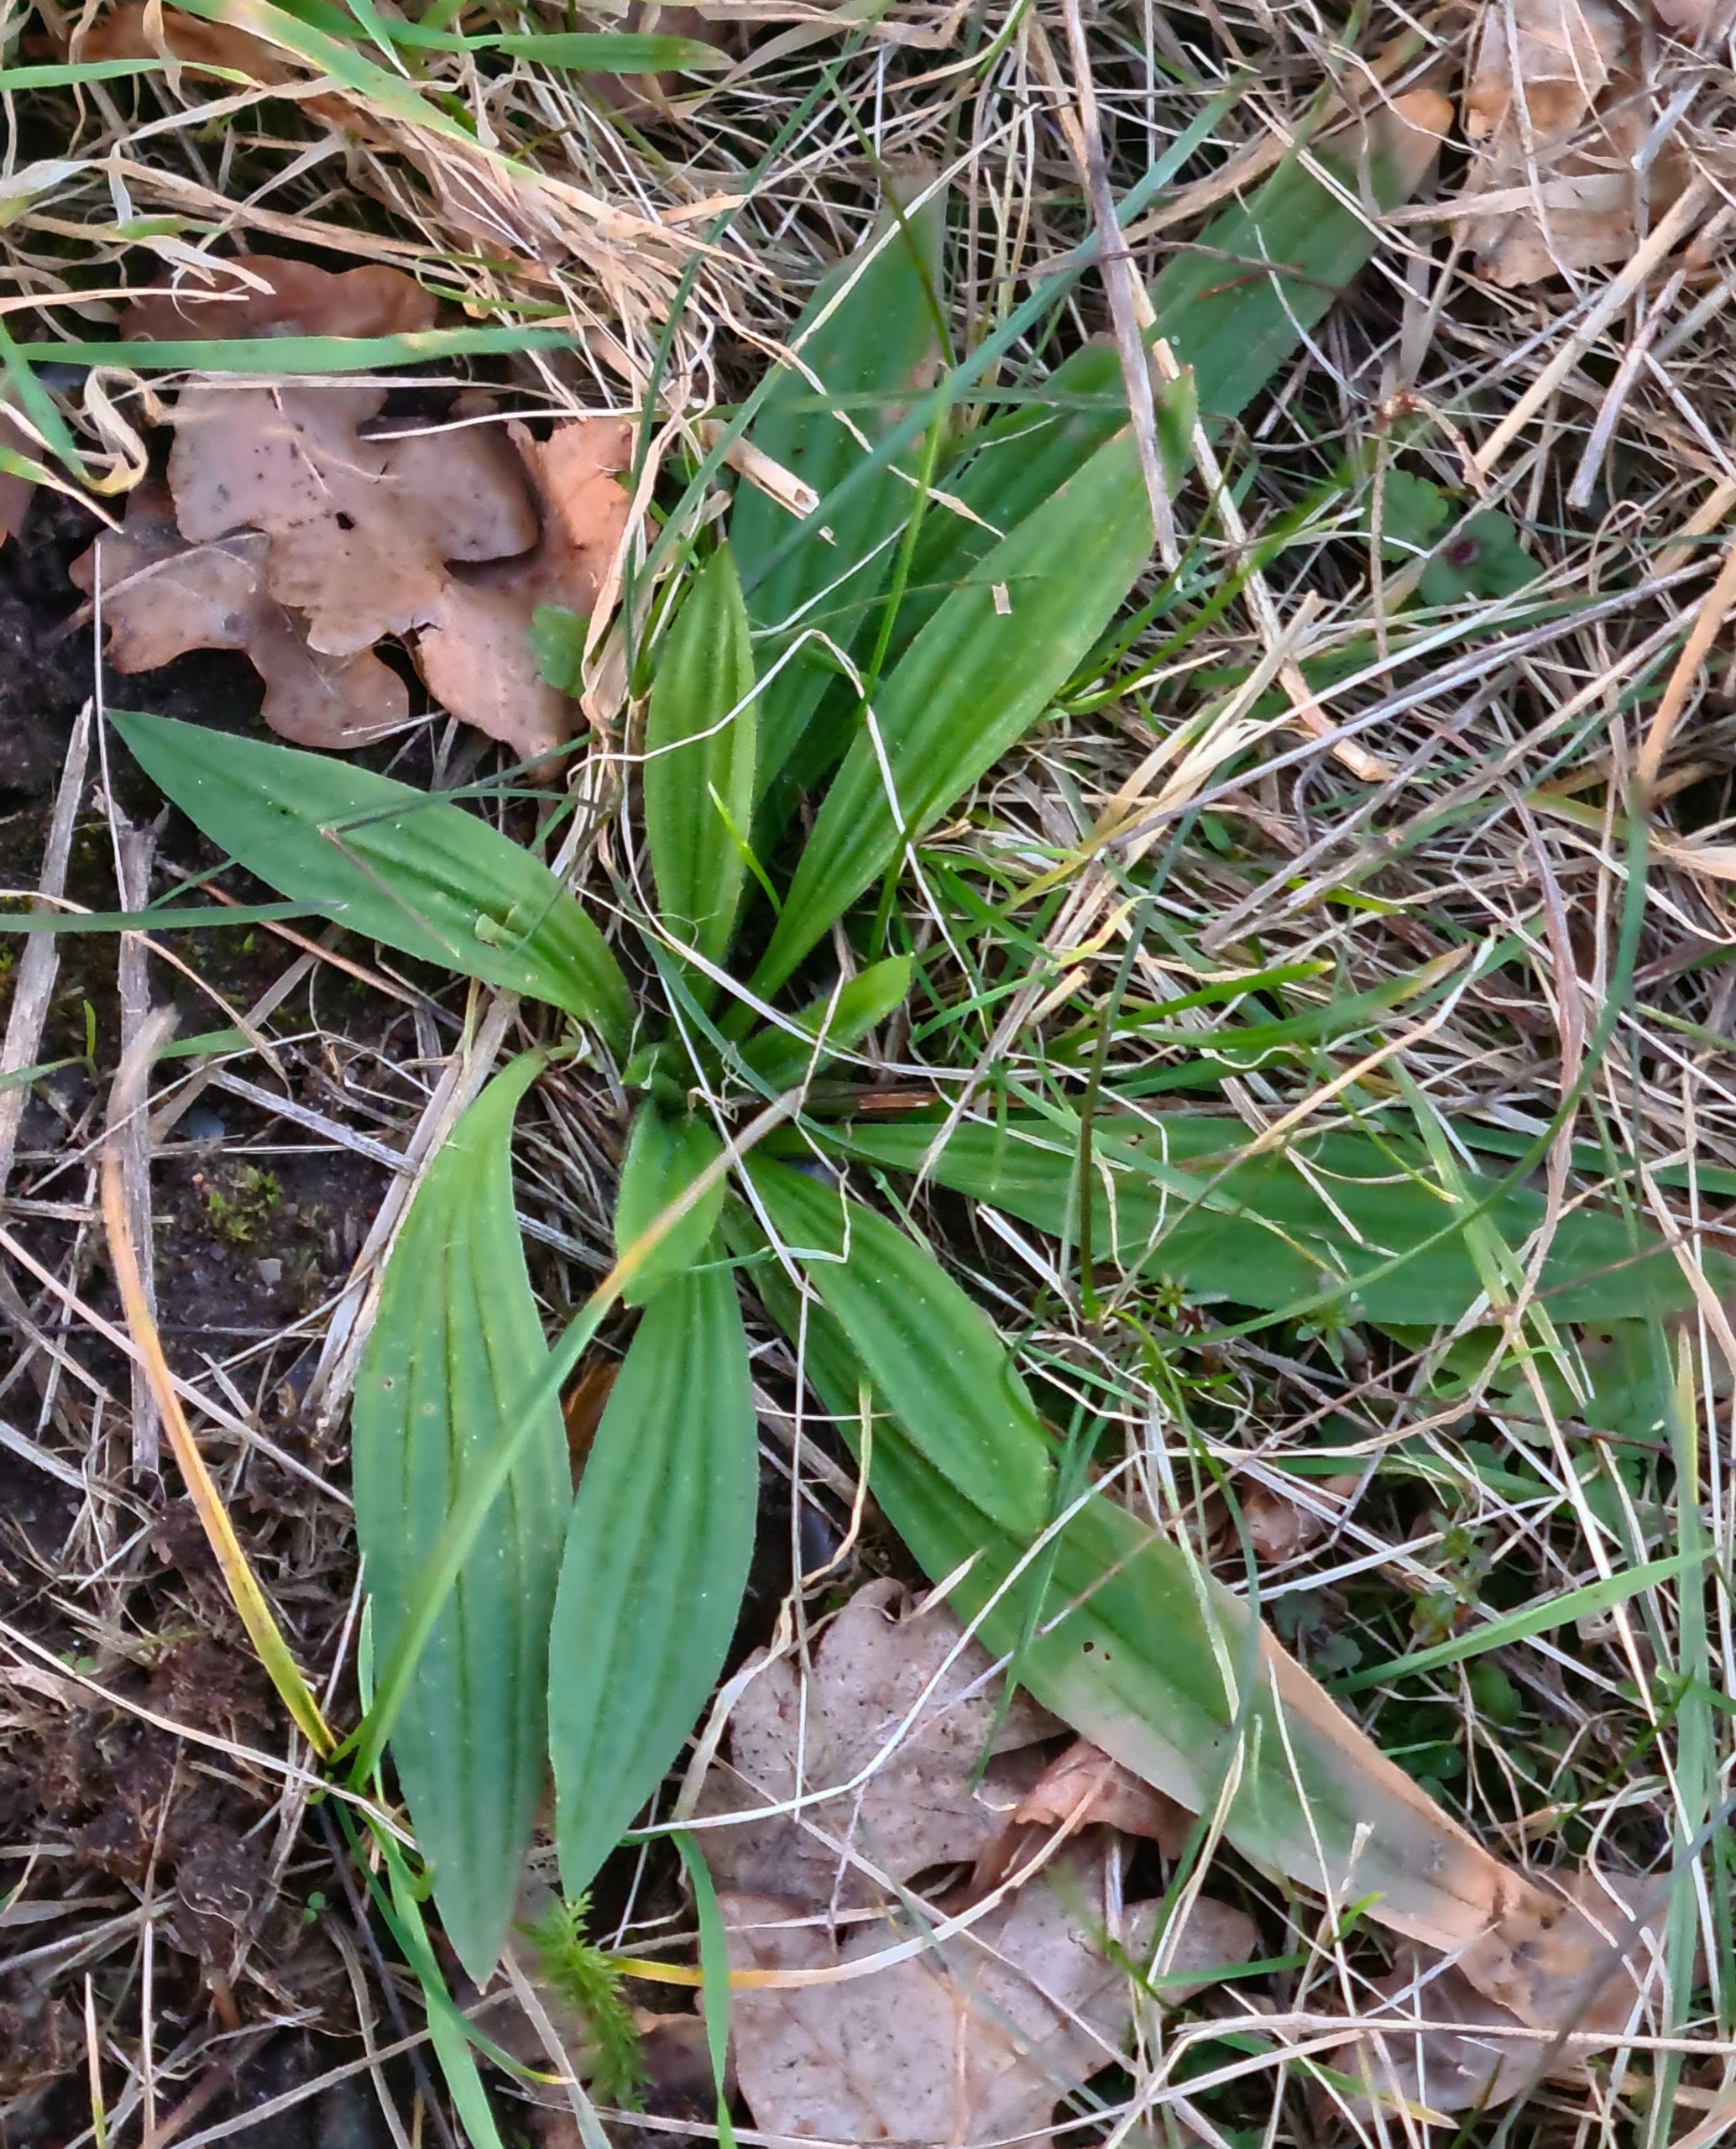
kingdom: Plantae
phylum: Tracheophyta
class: Magnoliopsida
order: Lamiales
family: Plantaginaceae
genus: Plantago
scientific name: Plantago lanceolata
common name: Lancet-vejbred
